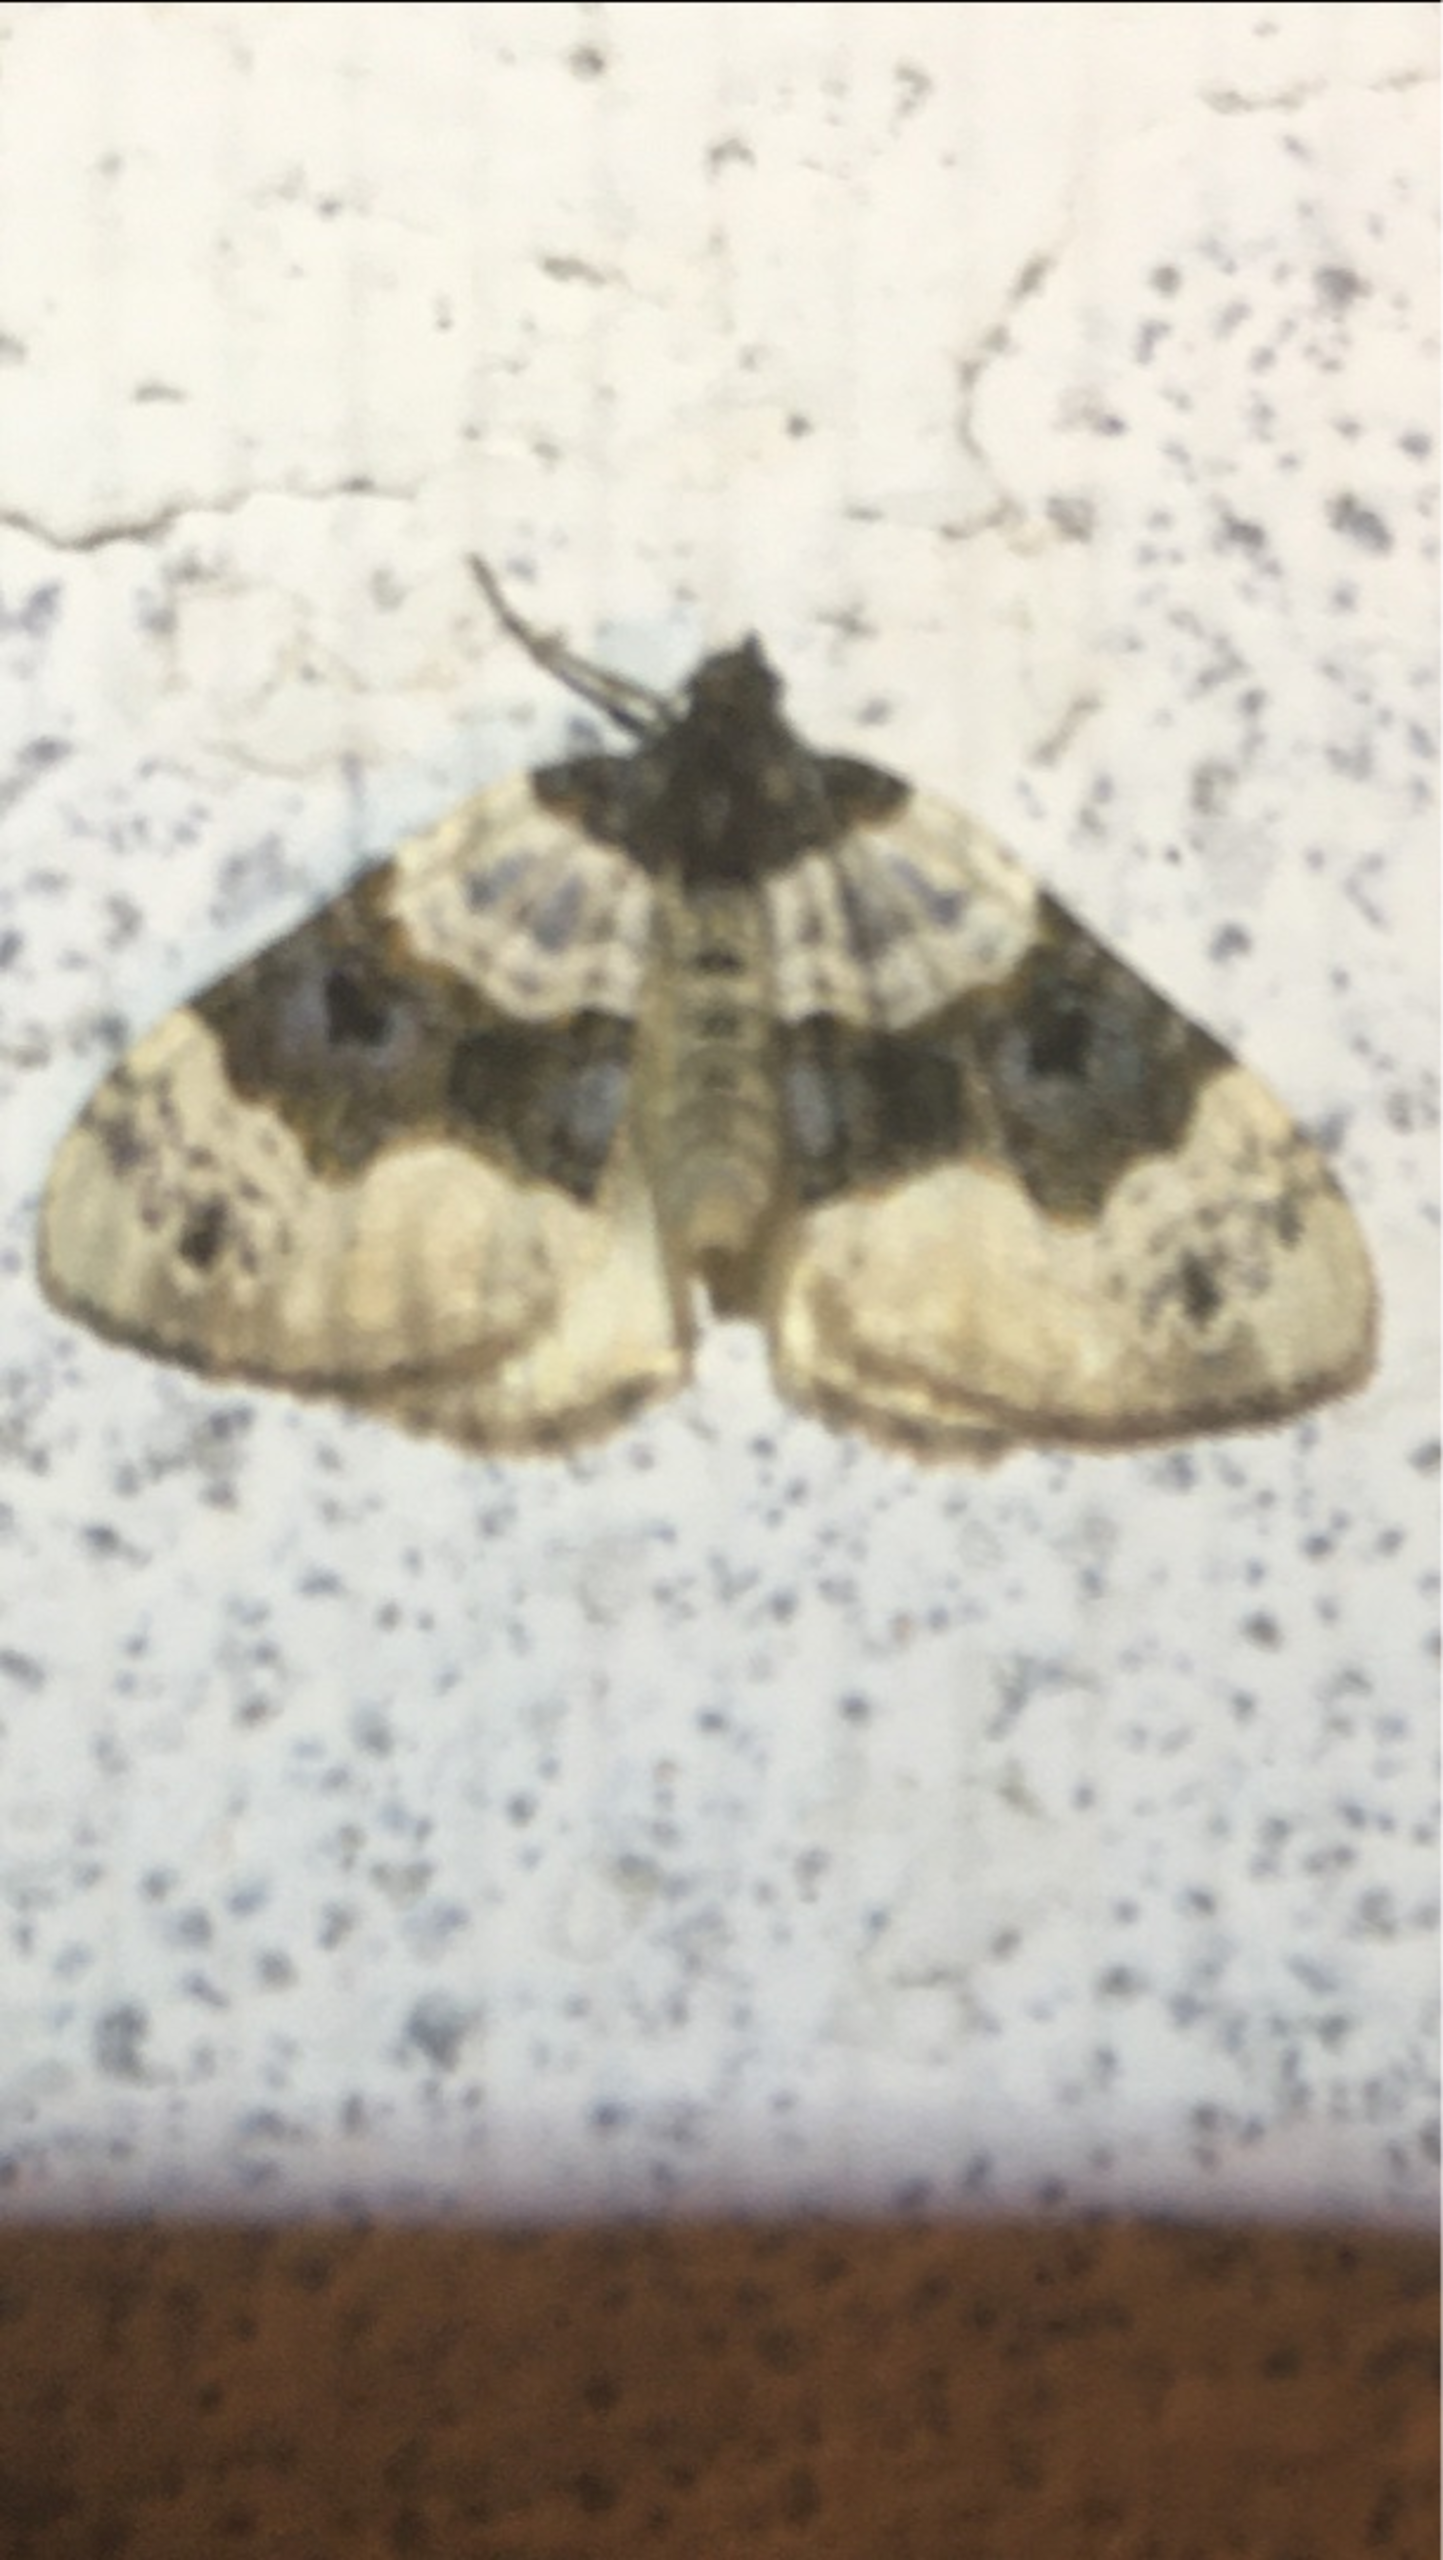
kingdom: Animalia
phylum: Arthropoda
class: Insecta
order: Lepidoptera
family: Geometridae
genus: Cosmorhoe
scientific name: Cosmorhoe ocellata
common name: Snerre-bladmåler
